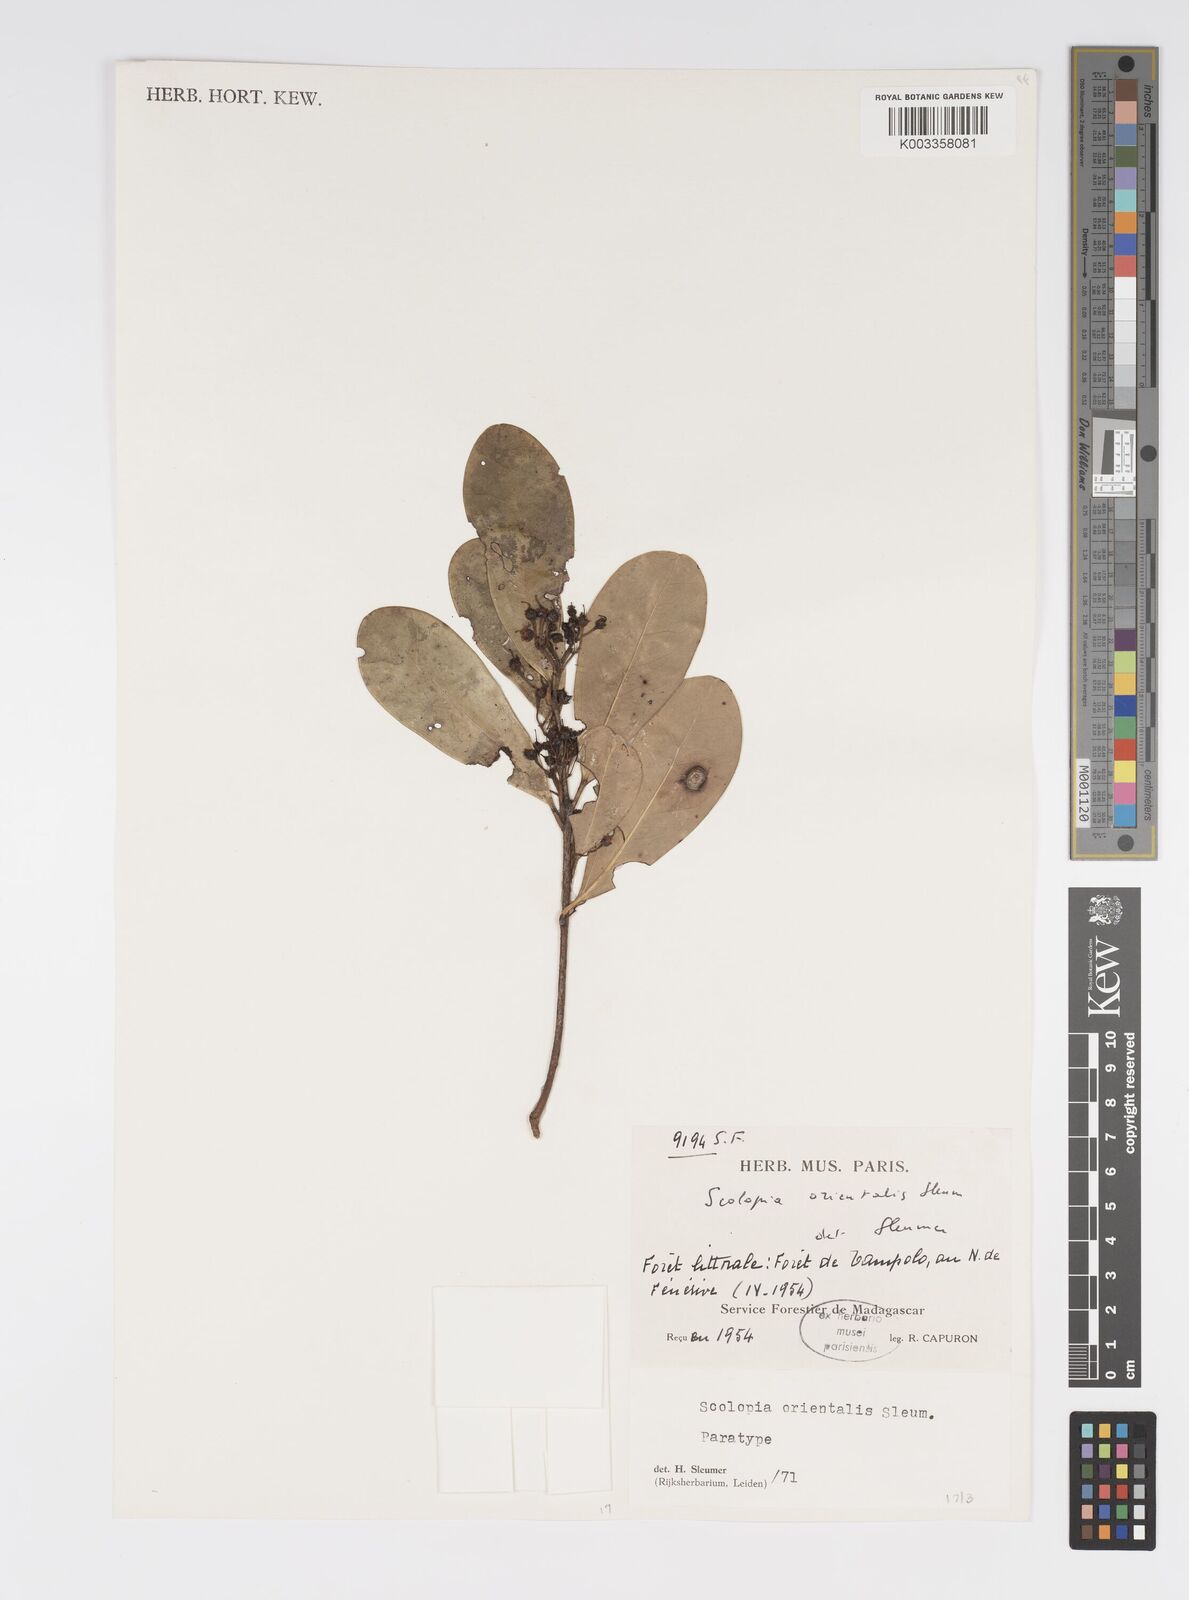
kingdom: Plantae
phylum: Tracheophyta
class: Magnoliopsida
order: Malpighiales
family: Salicaceae
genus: Scolopia
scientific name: Scolopia orientalis
